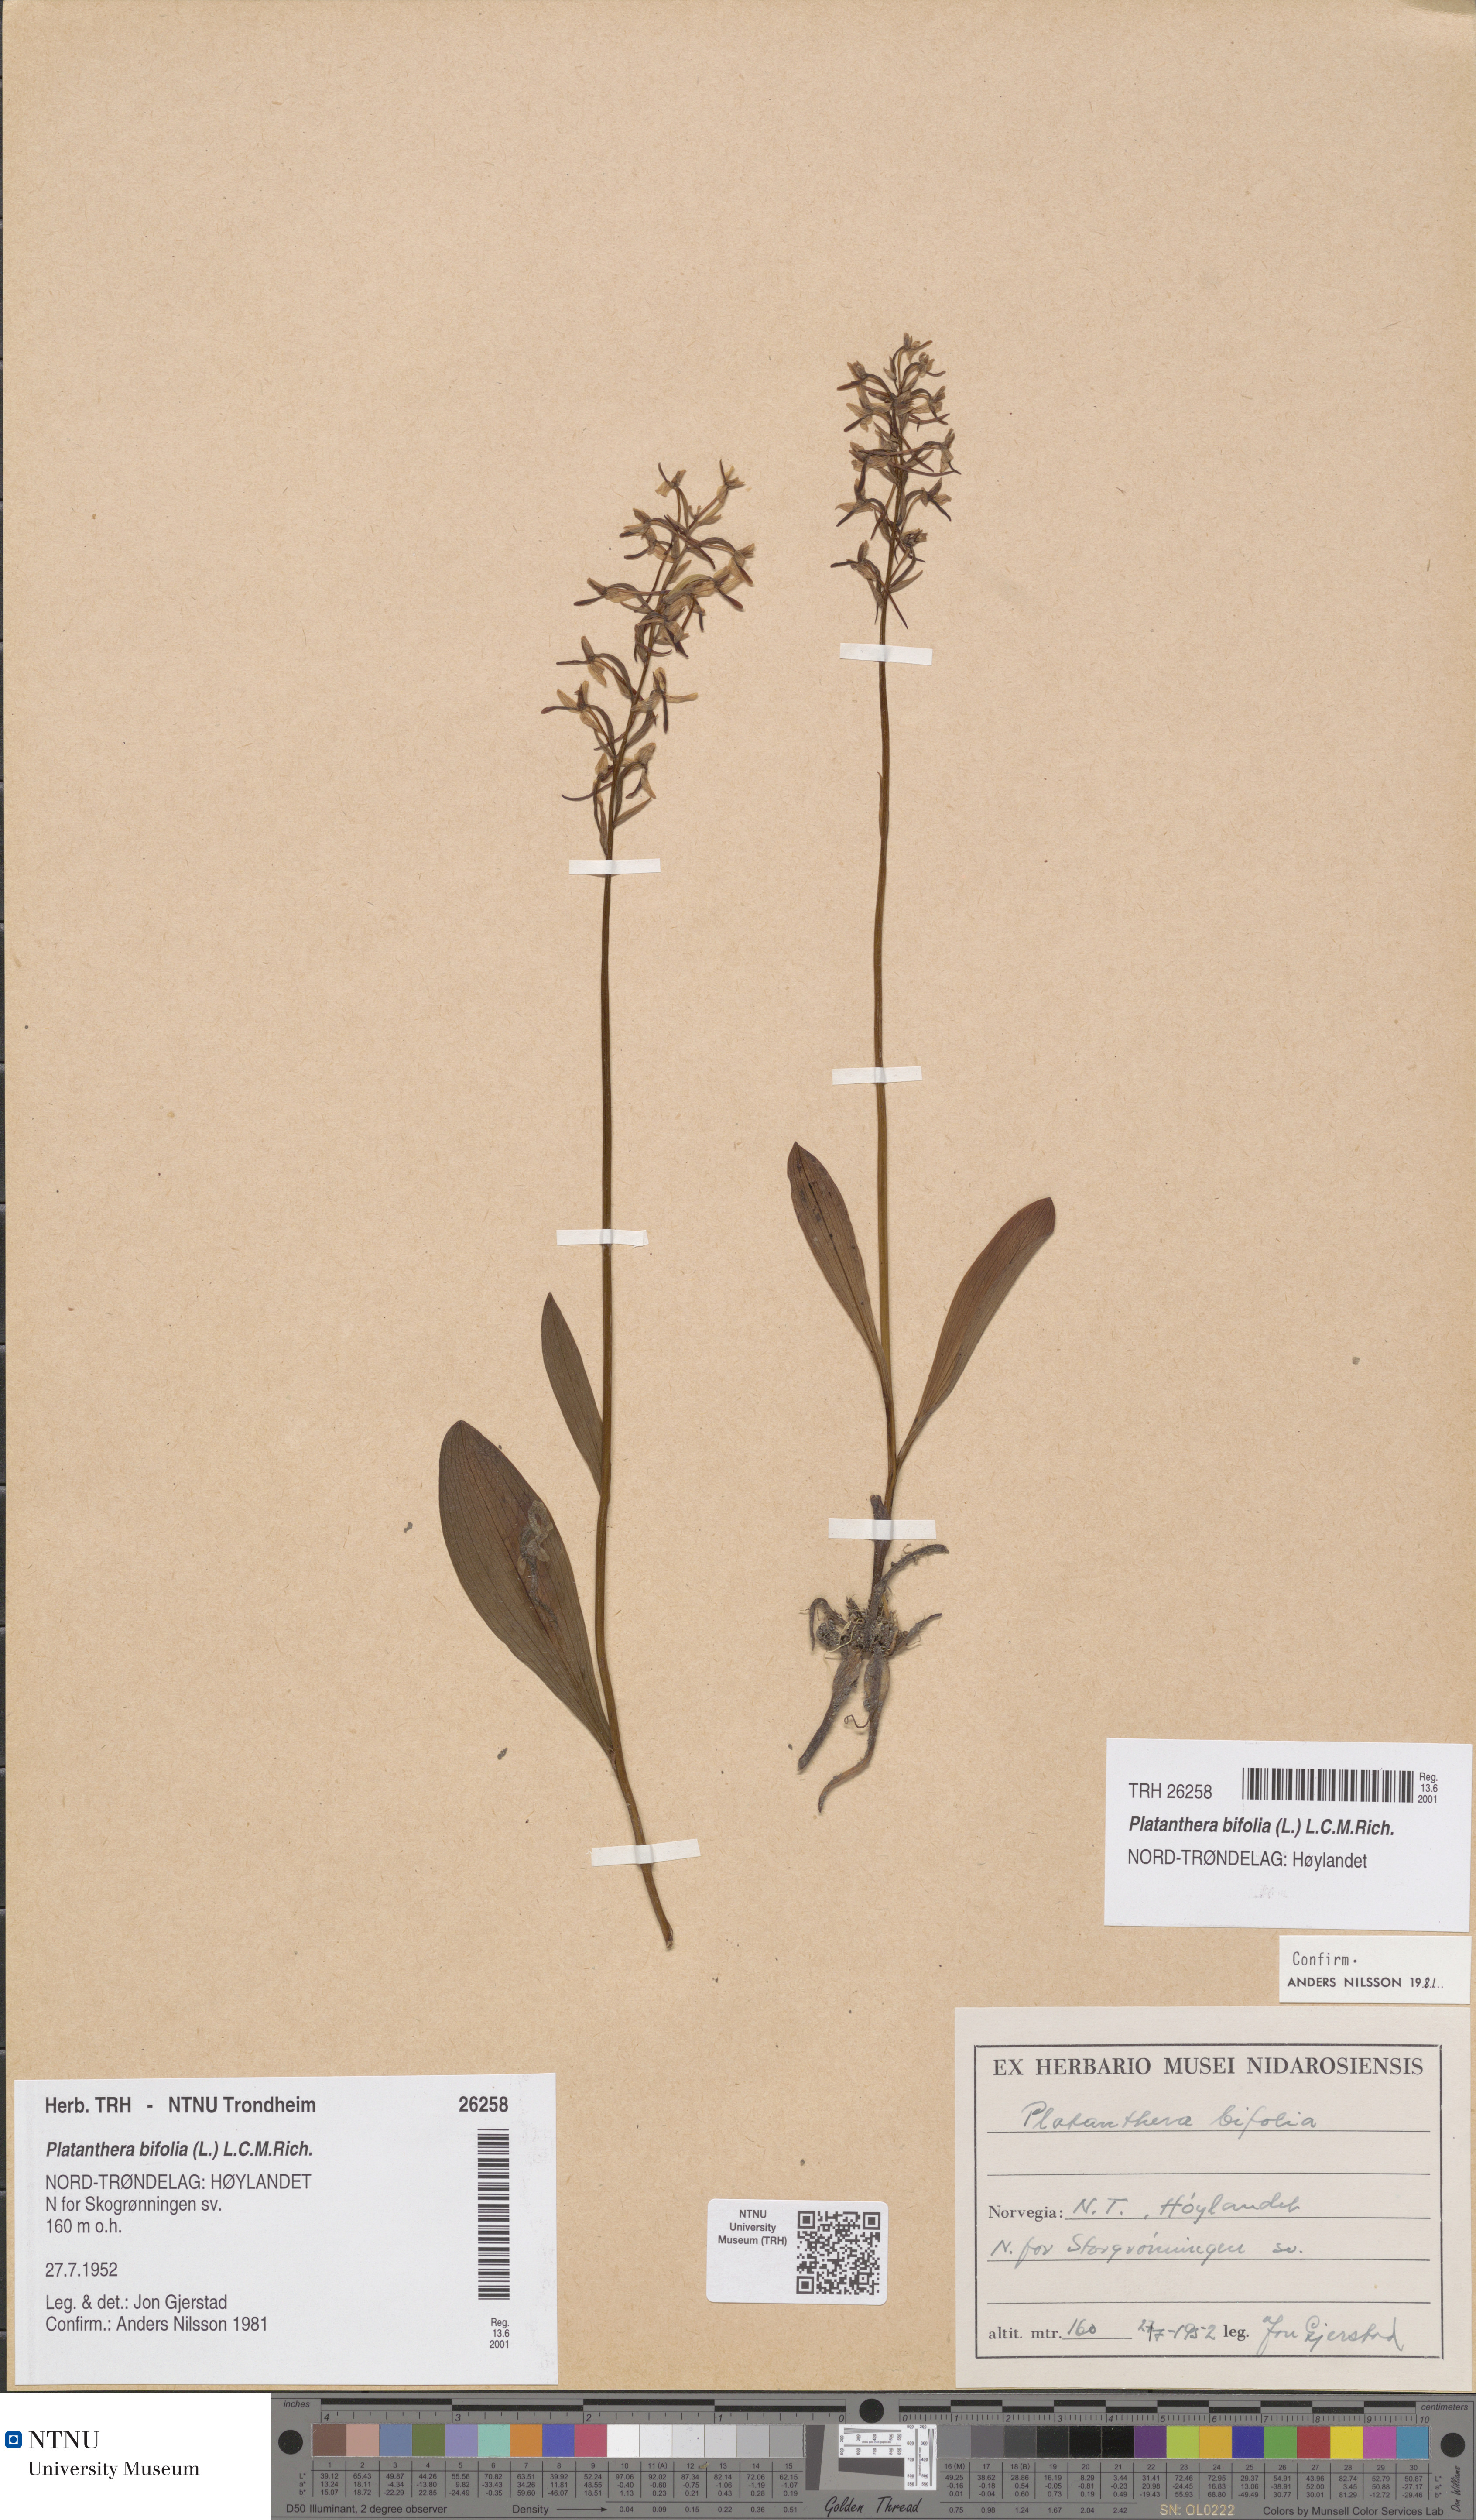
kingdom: Plantae
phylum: Tracheophyta
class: Liliopsida
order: Asparagales
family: Orchidaceae
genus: Platanthera
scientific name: Platanthera bifolia
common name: Lesser butterfly-orchid
